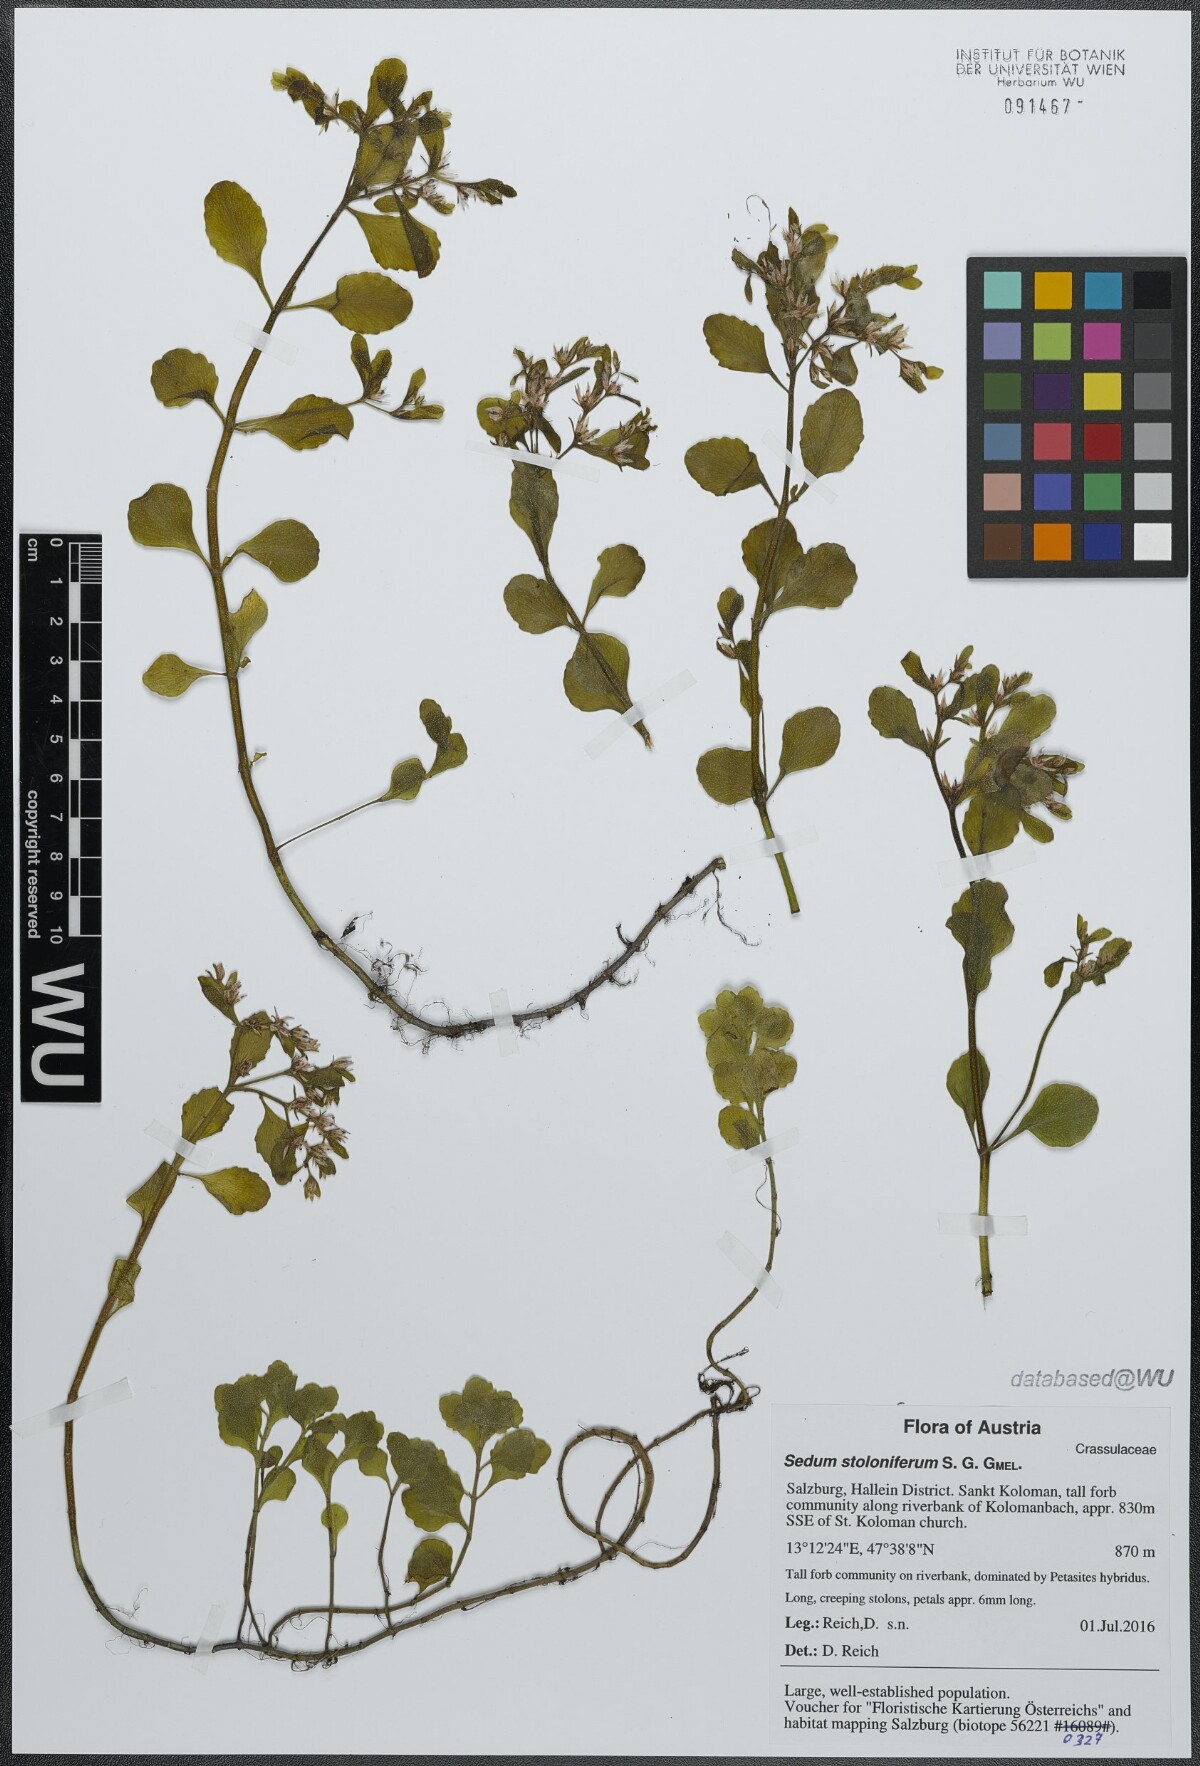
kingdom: Plantae
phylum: Tracheophyta
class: Magnoliopsida
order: Saxifragales
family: Crassulaceae
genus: Phedimus
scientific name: Phedimus stolonifer
